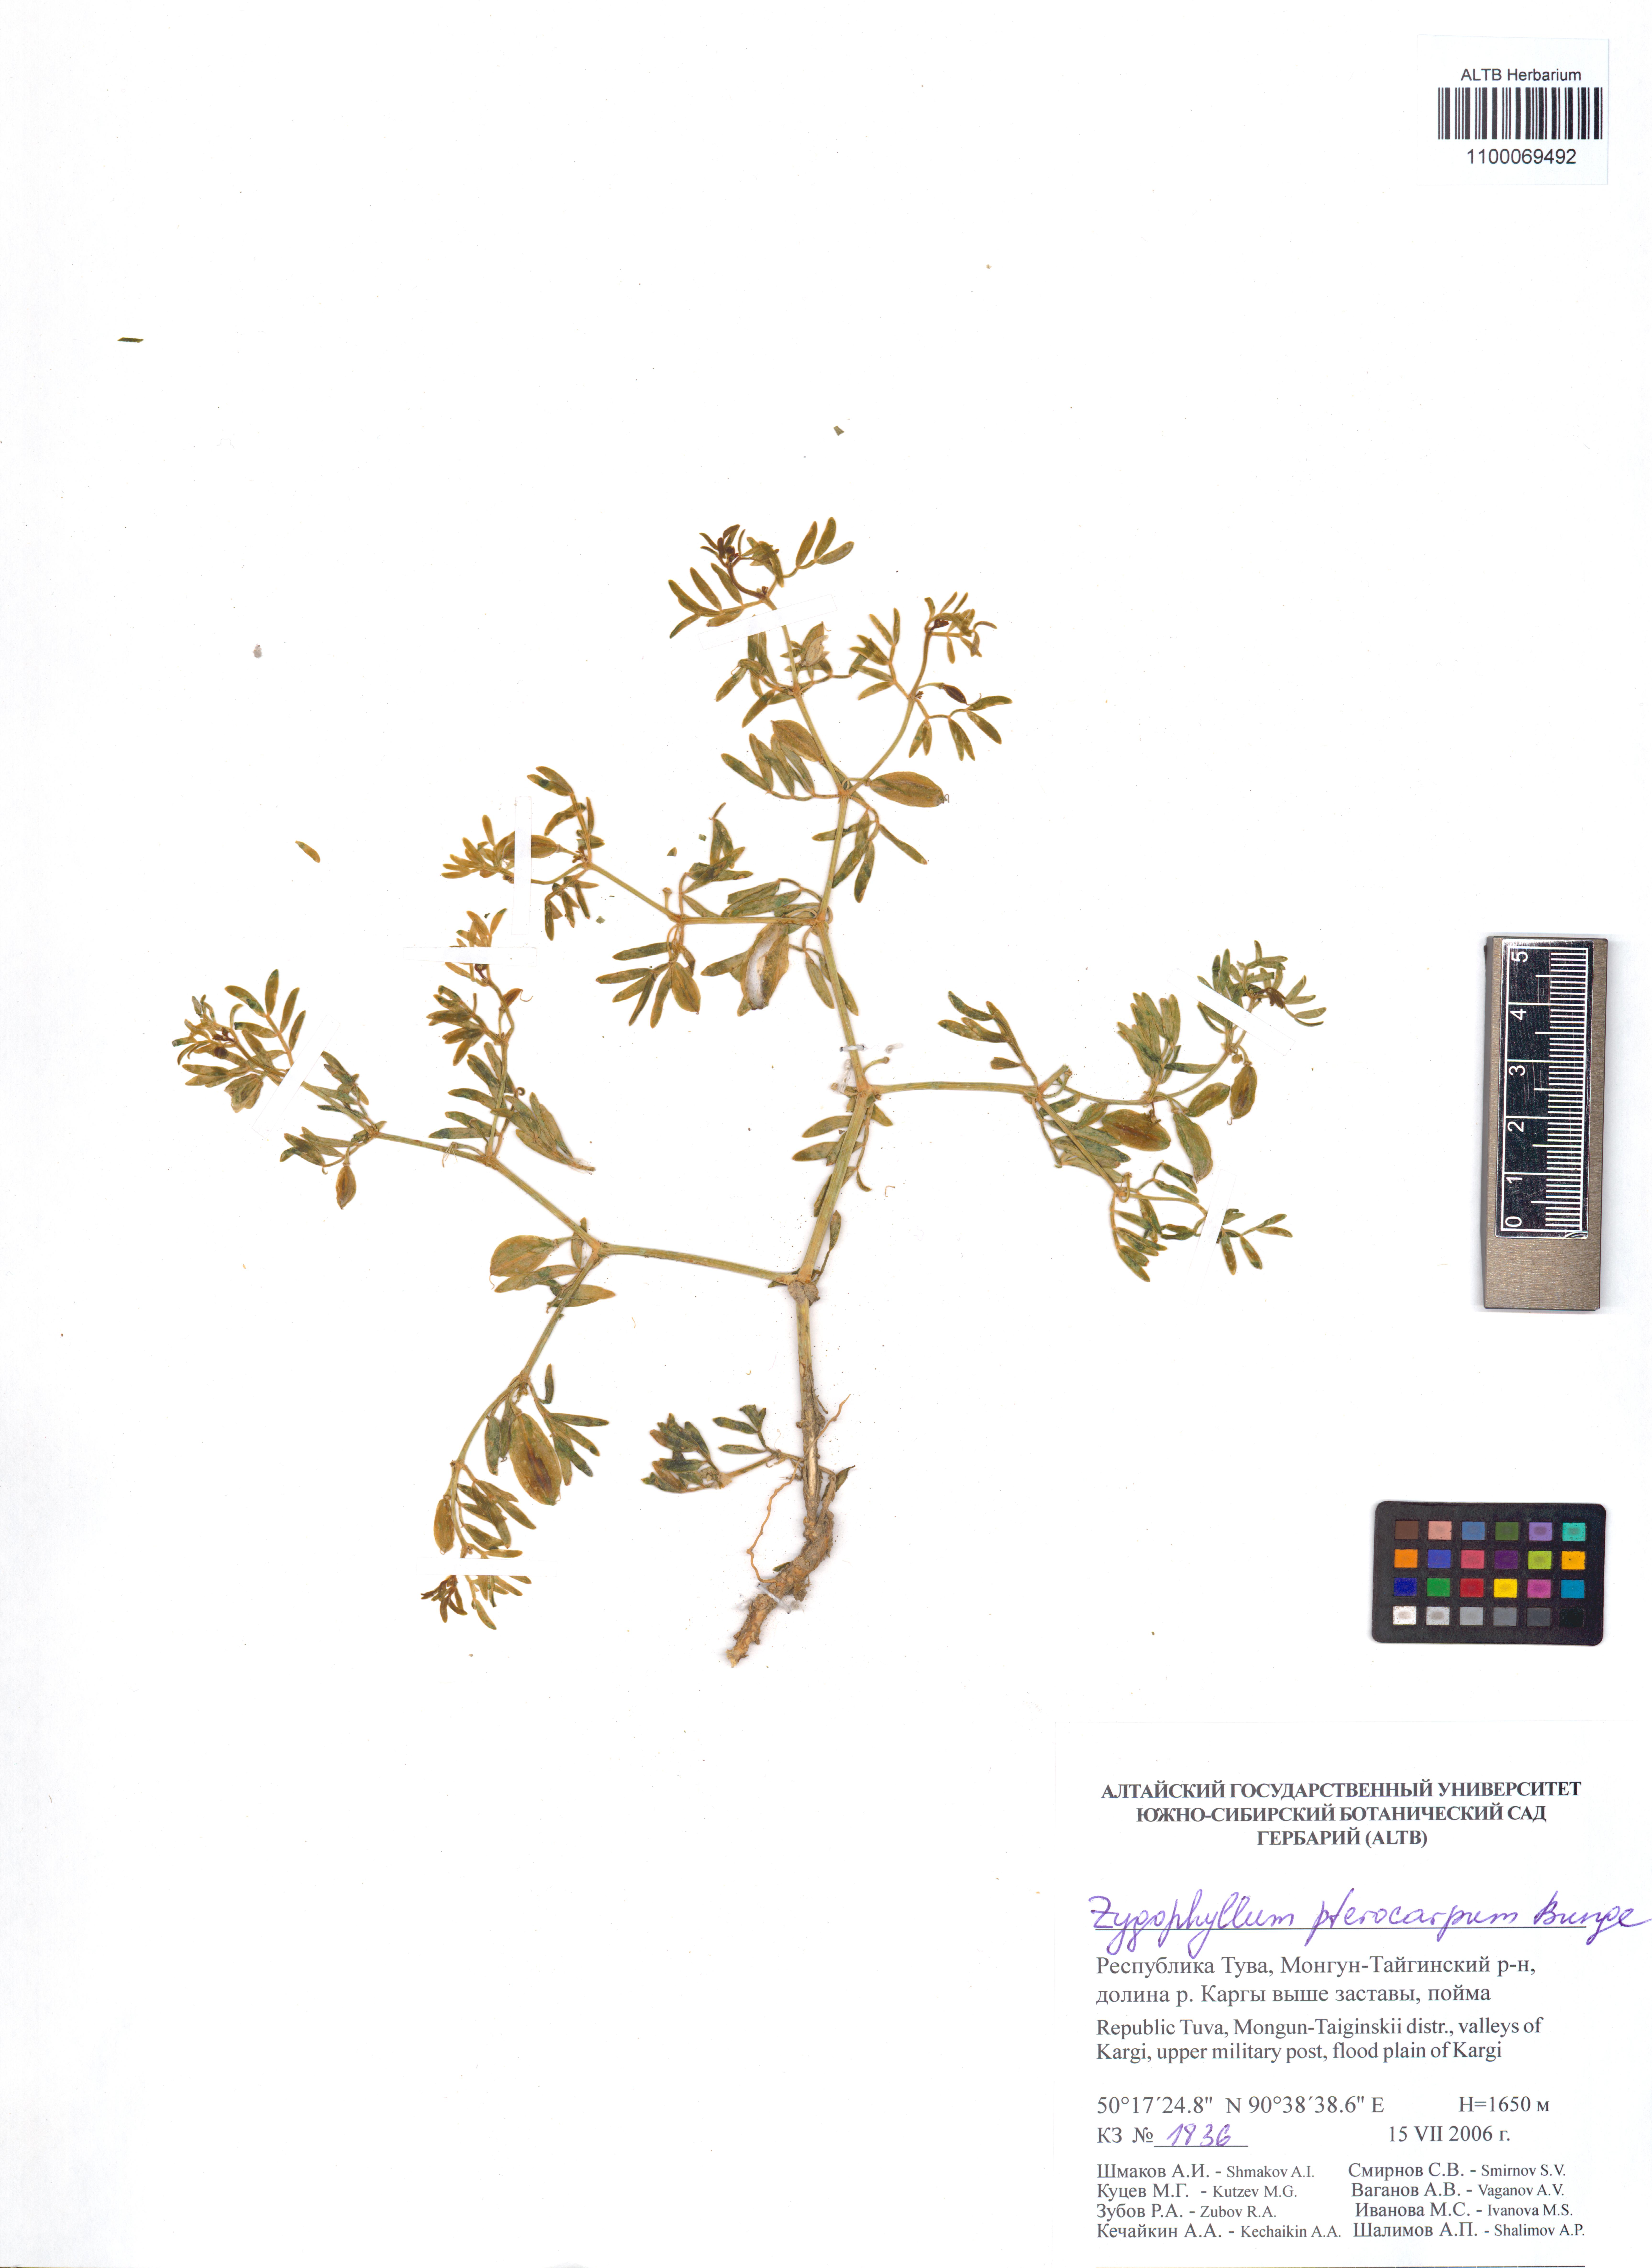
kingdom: Plantae
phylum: Tracheophyta
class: Magnoliopsida
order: Zygophyllales
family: Zygophyllaceae
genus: Zygophyllum
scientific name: Zygophyllum pterocarpum
